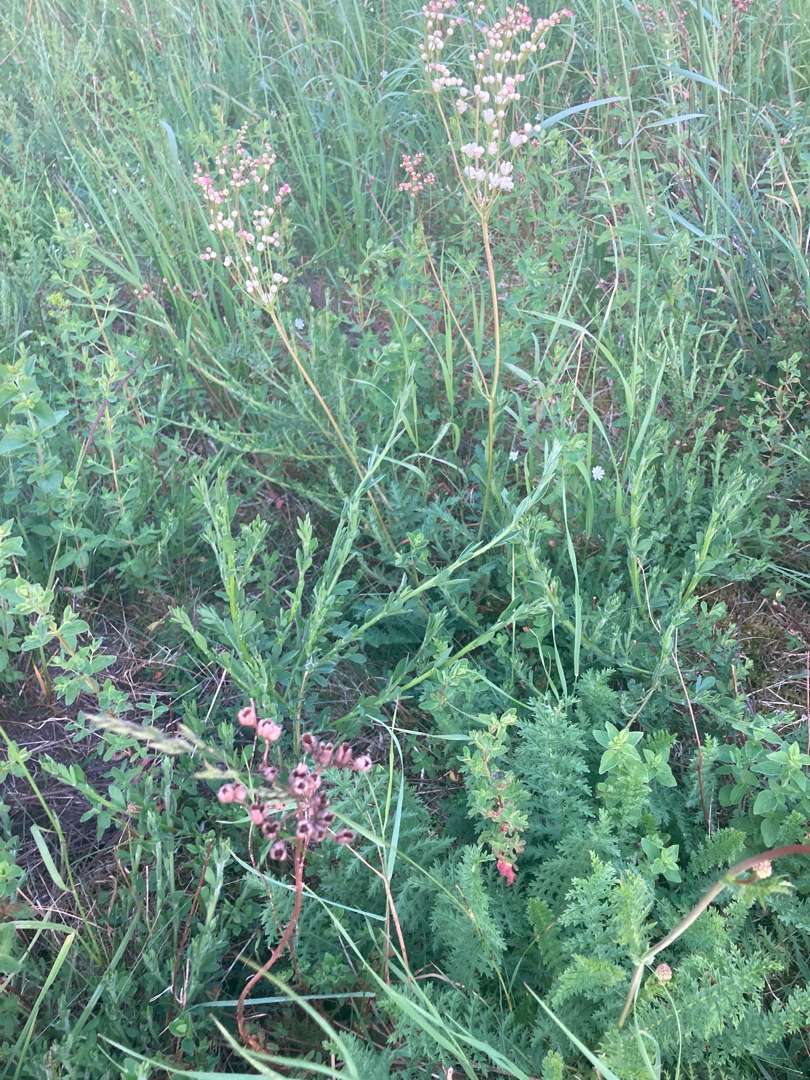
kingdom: Plantae
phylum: Tracheophyta
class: Magnoliopsida
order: Rosales
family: Rosaceae
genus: Filipendula
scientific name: Filipendula vulgaris
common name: Knoldet mjødurt
